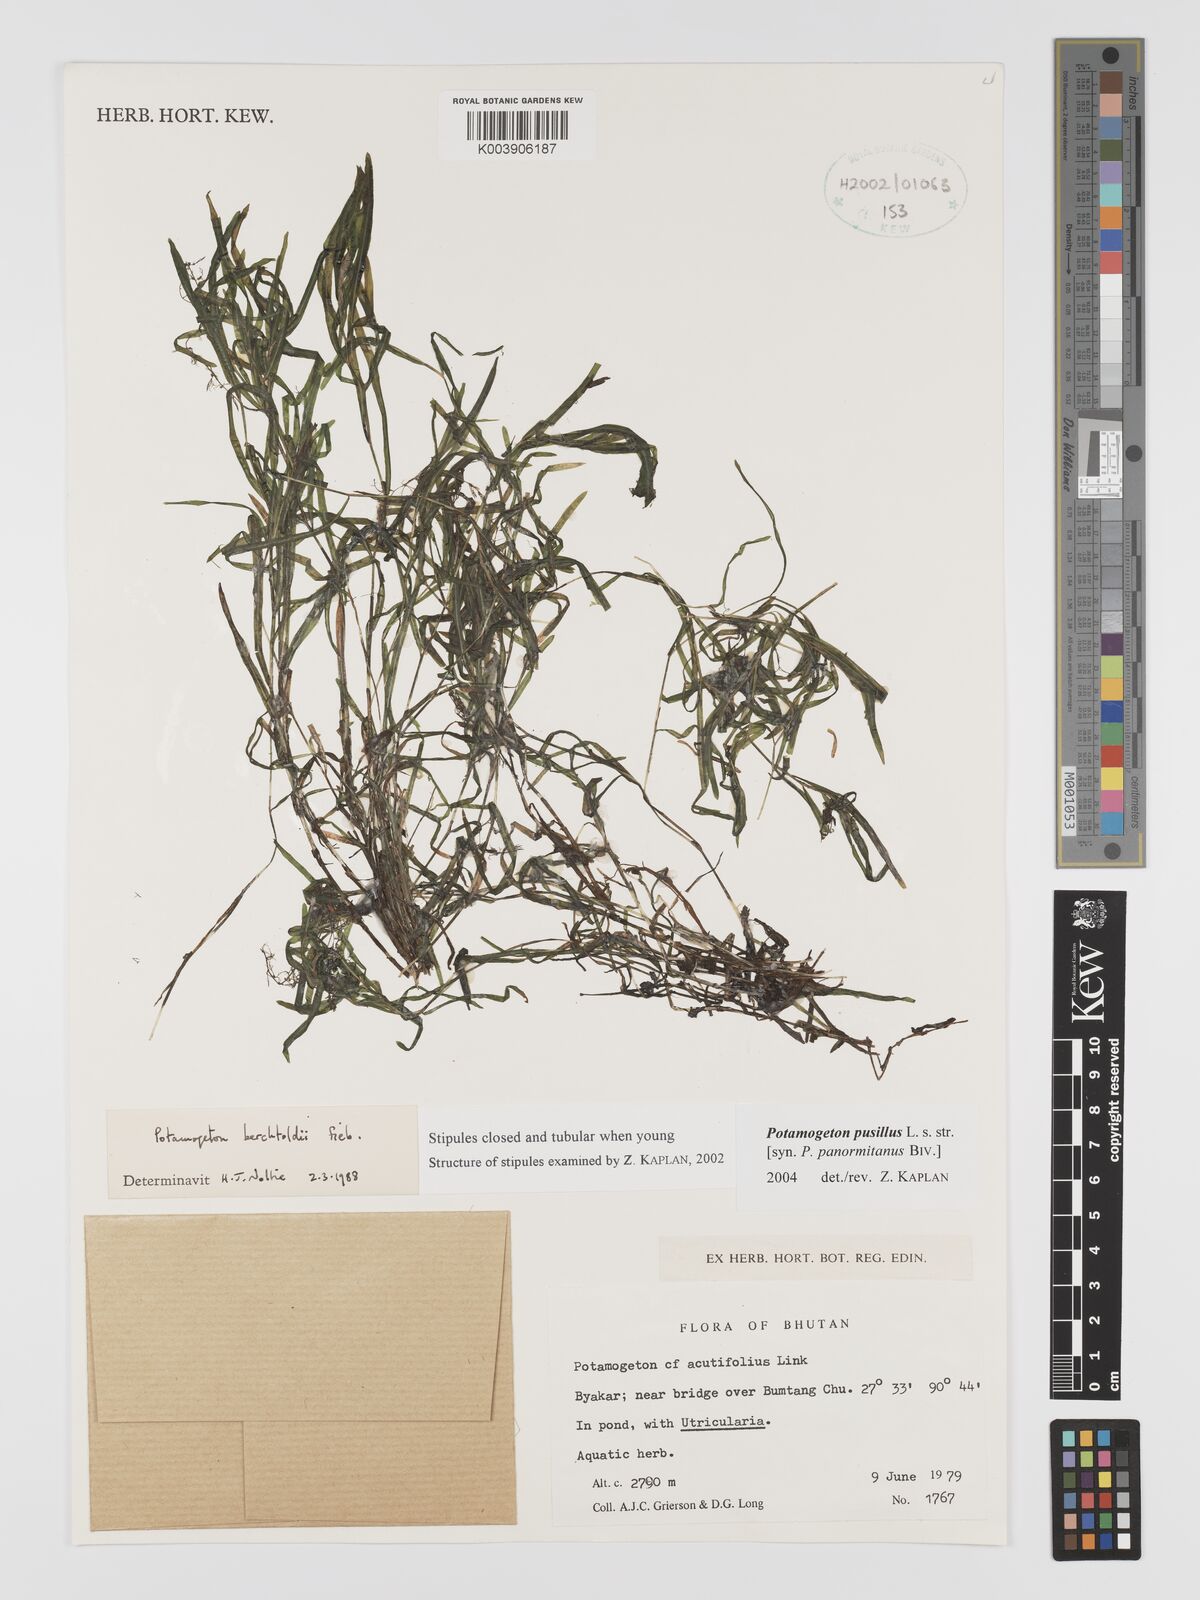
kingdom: Plantae
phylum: Tracheophyta
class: Liliopsida
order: Alismatales
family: Potamogetonaceae
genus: Potamogeton
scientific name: Potamogeton pusillus
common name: Lesser pondweed
